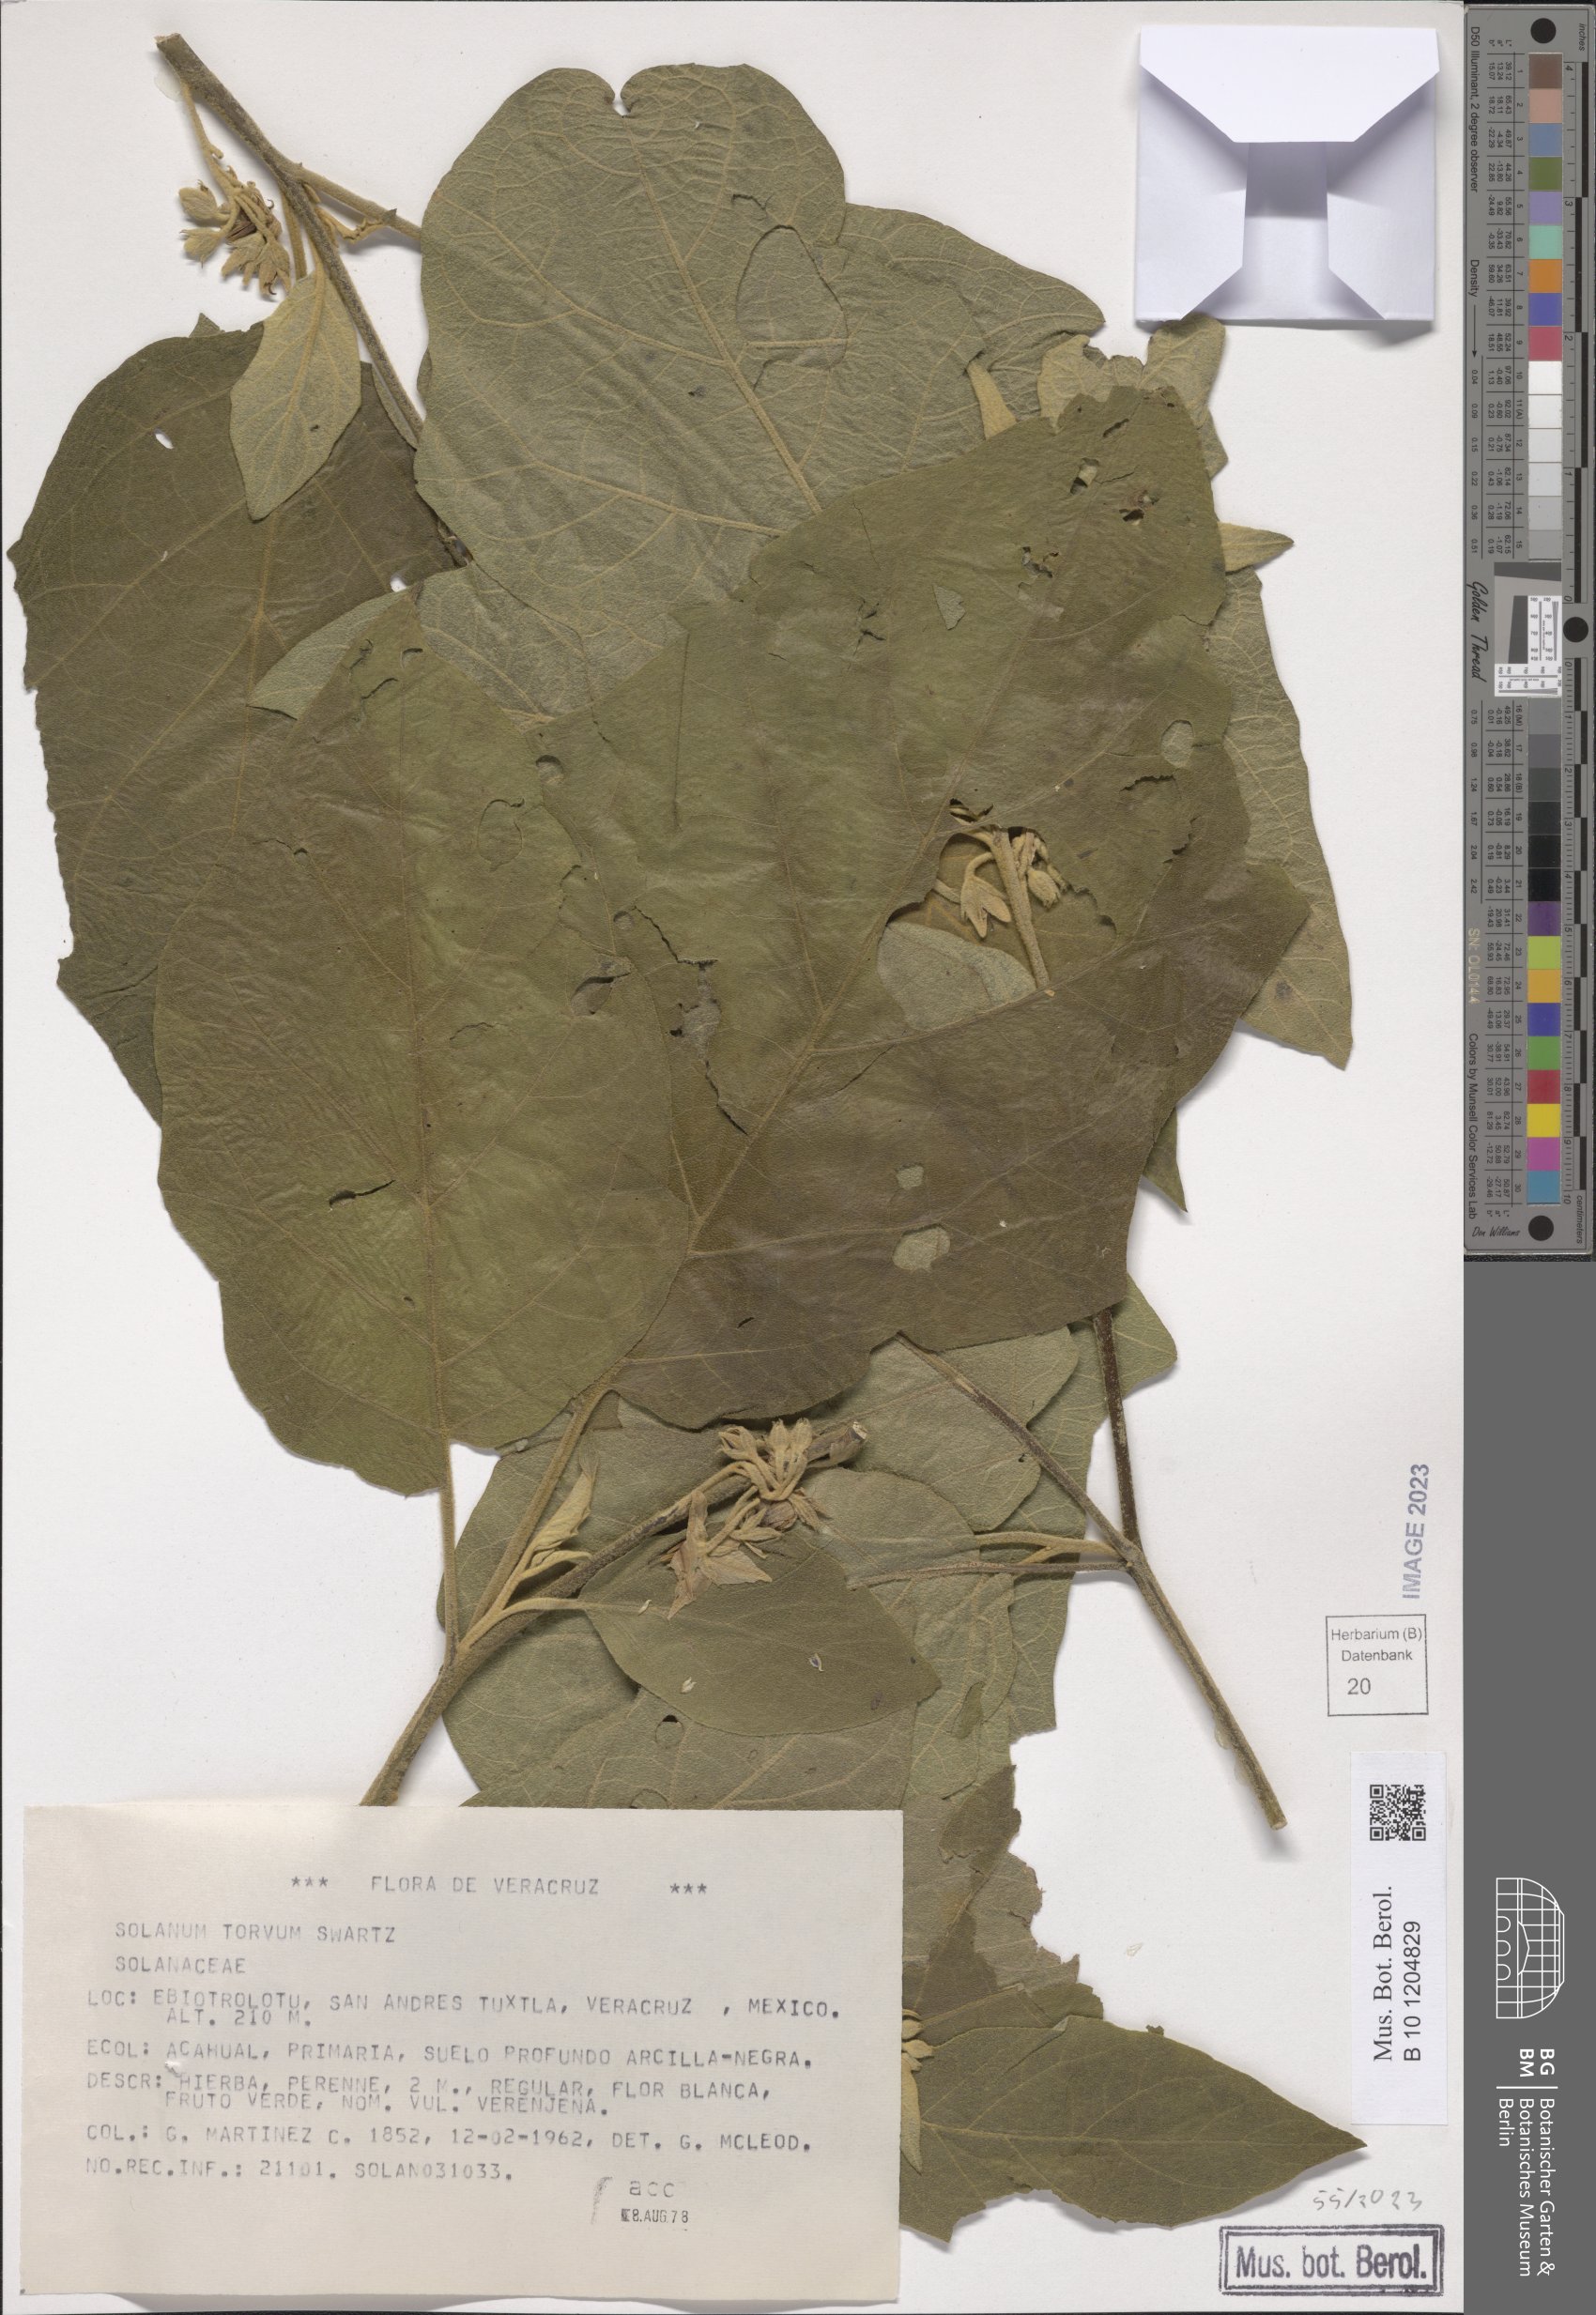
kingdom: Plantae
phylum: Tracheophyta
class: Magnoliopsida
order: Solanales
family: Solanaceae
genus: Solanum
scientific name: Solanum torvum
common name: Turkey berry
